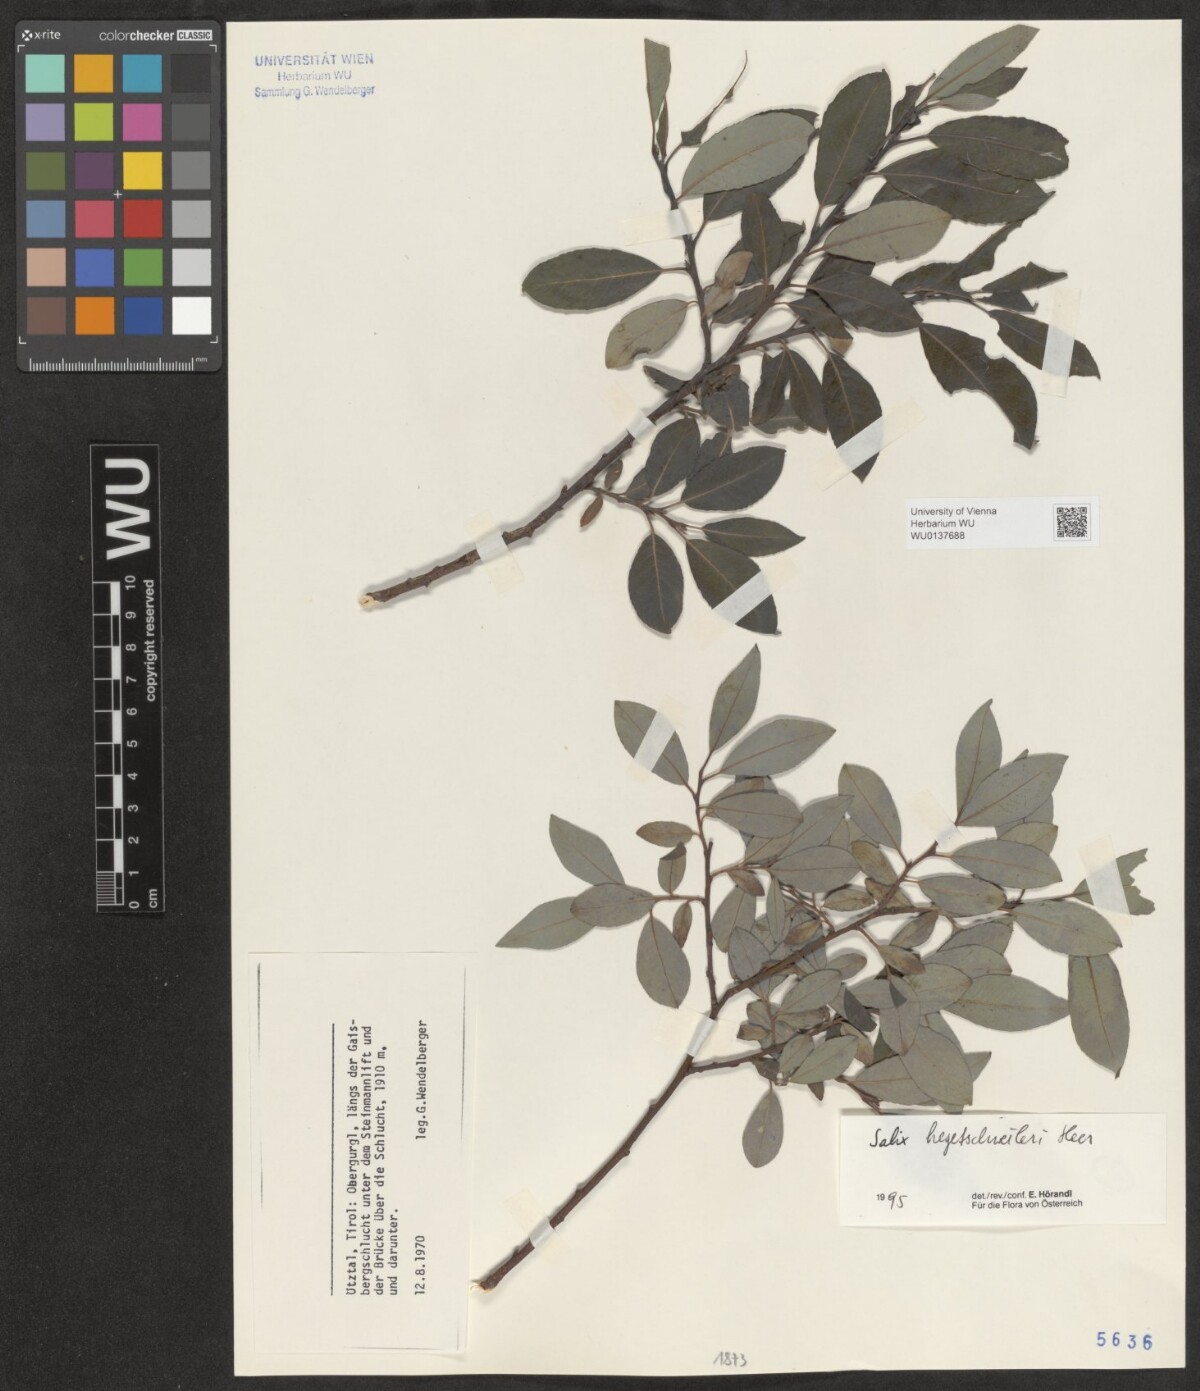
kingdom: Plantae
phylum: Tracheophyta
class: Magnoliopsida
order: Malpighiales
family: Salicaceae
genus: Salix
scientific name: Salix hegetschweileri
